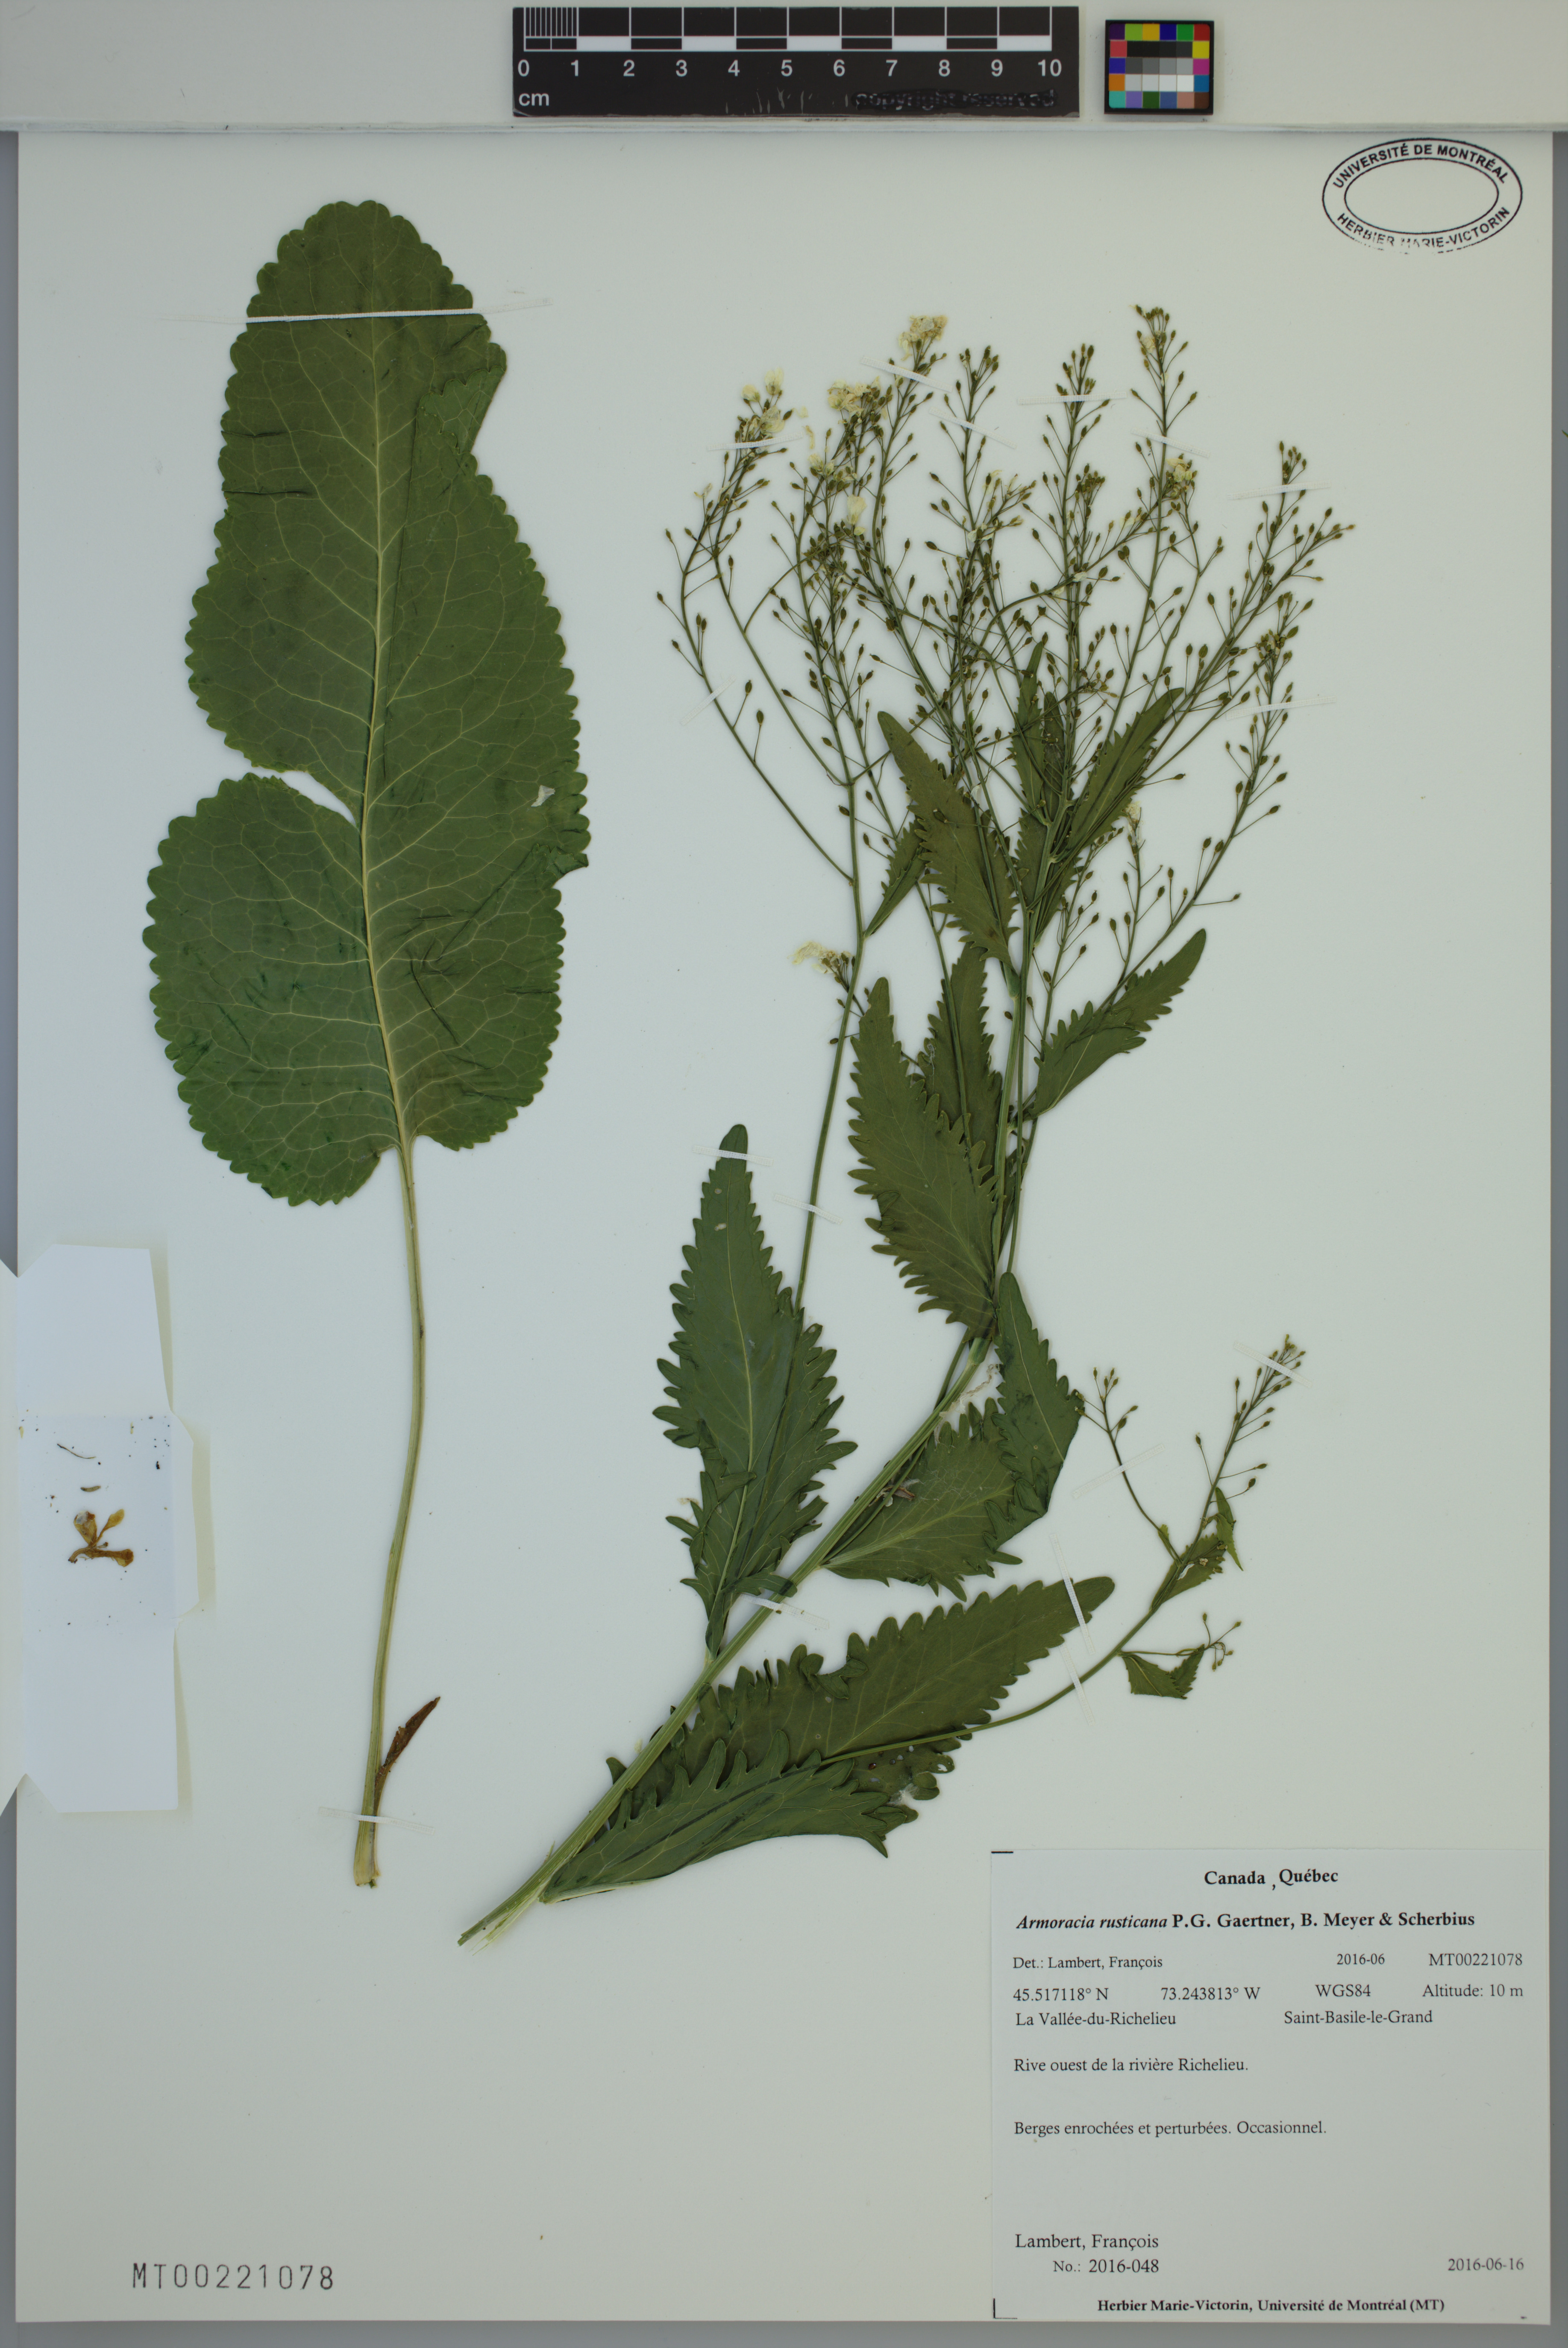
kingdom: Plantae
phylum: Tracheophyta
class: Magnoliopsida
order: Brassicales
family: Brassicaceae
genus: Armoracia
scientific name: Armoracia rusticana
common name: Horseradish
